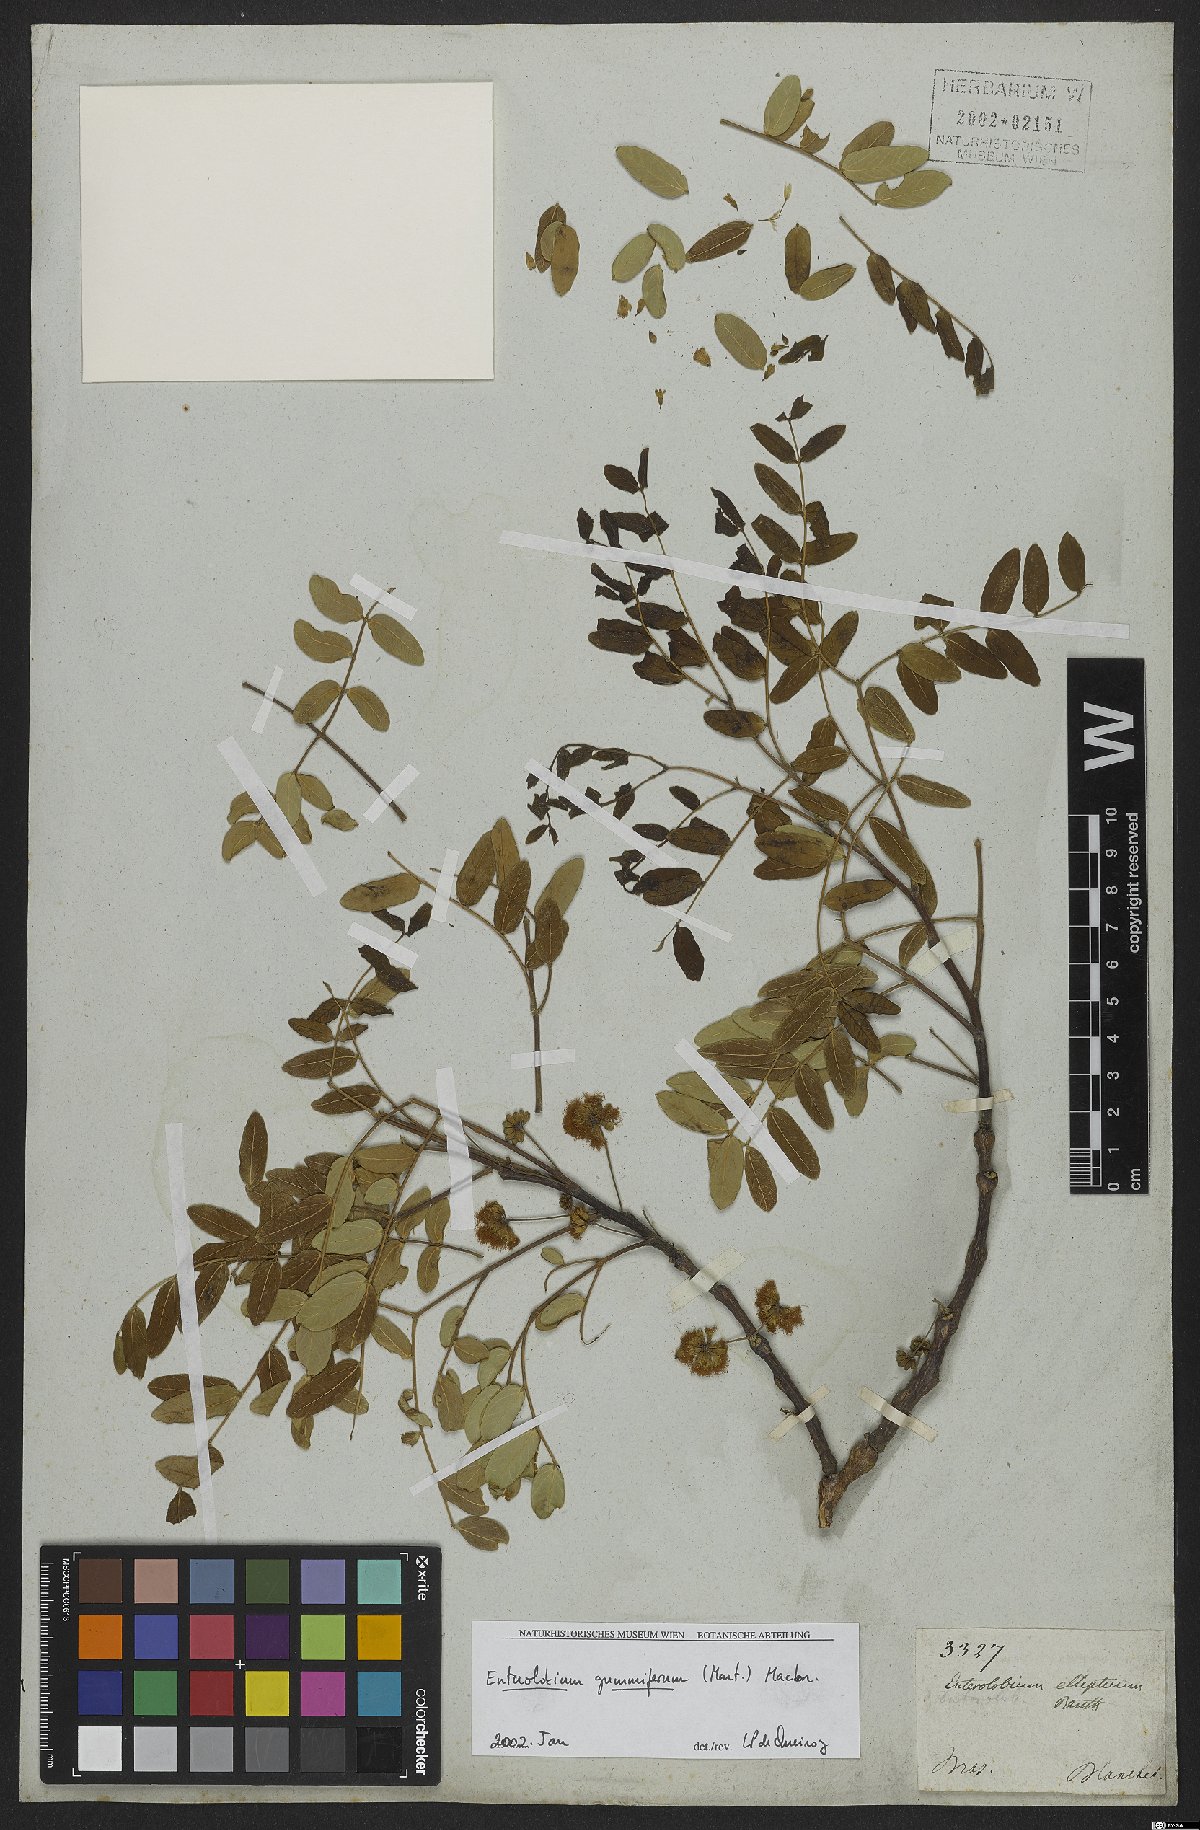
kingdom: Plantae
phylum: Tracheophyta
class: Magnoliopsida
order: Fabales
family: Fabaceae
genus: Enterolobium
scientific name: Enterolobium gummiferum
